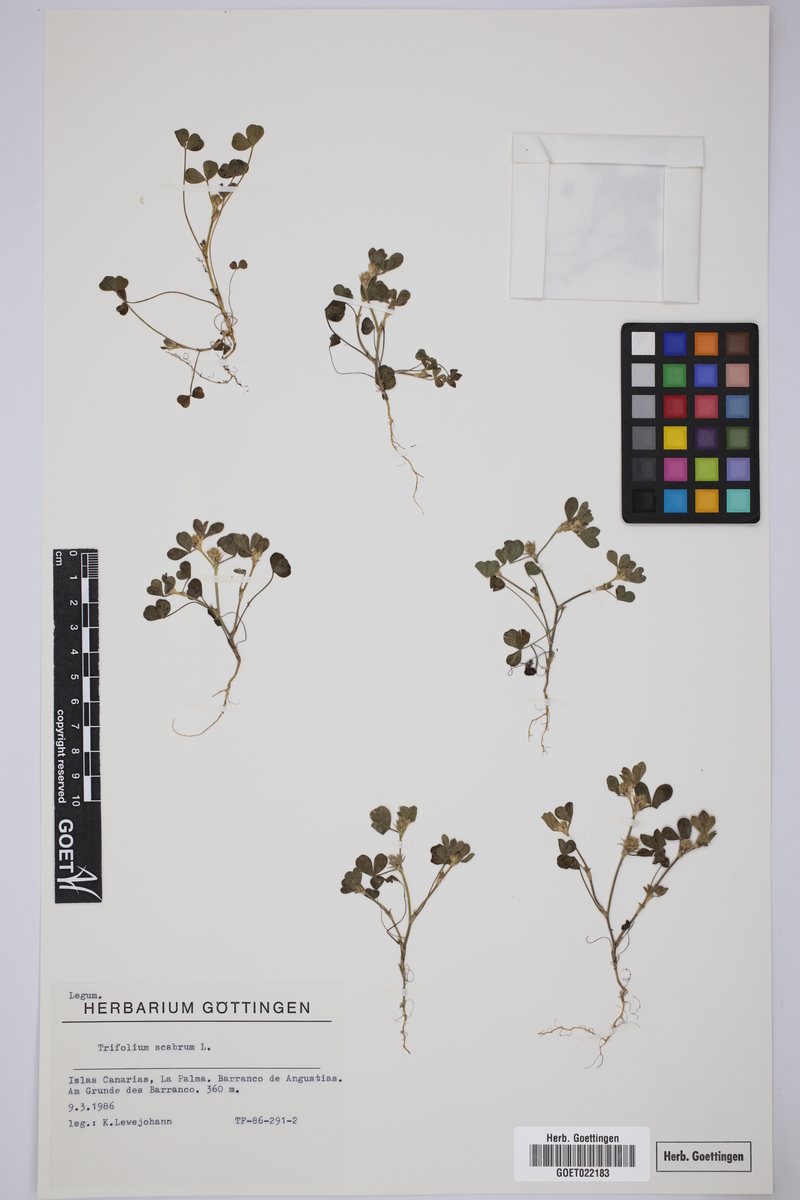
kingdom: Plantae
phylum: Tracheophyta
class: Magnoliopsida
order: Fabales
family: Fabaceae
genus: Trifolium
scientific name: Trifolium scabrum
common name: Rough clover
